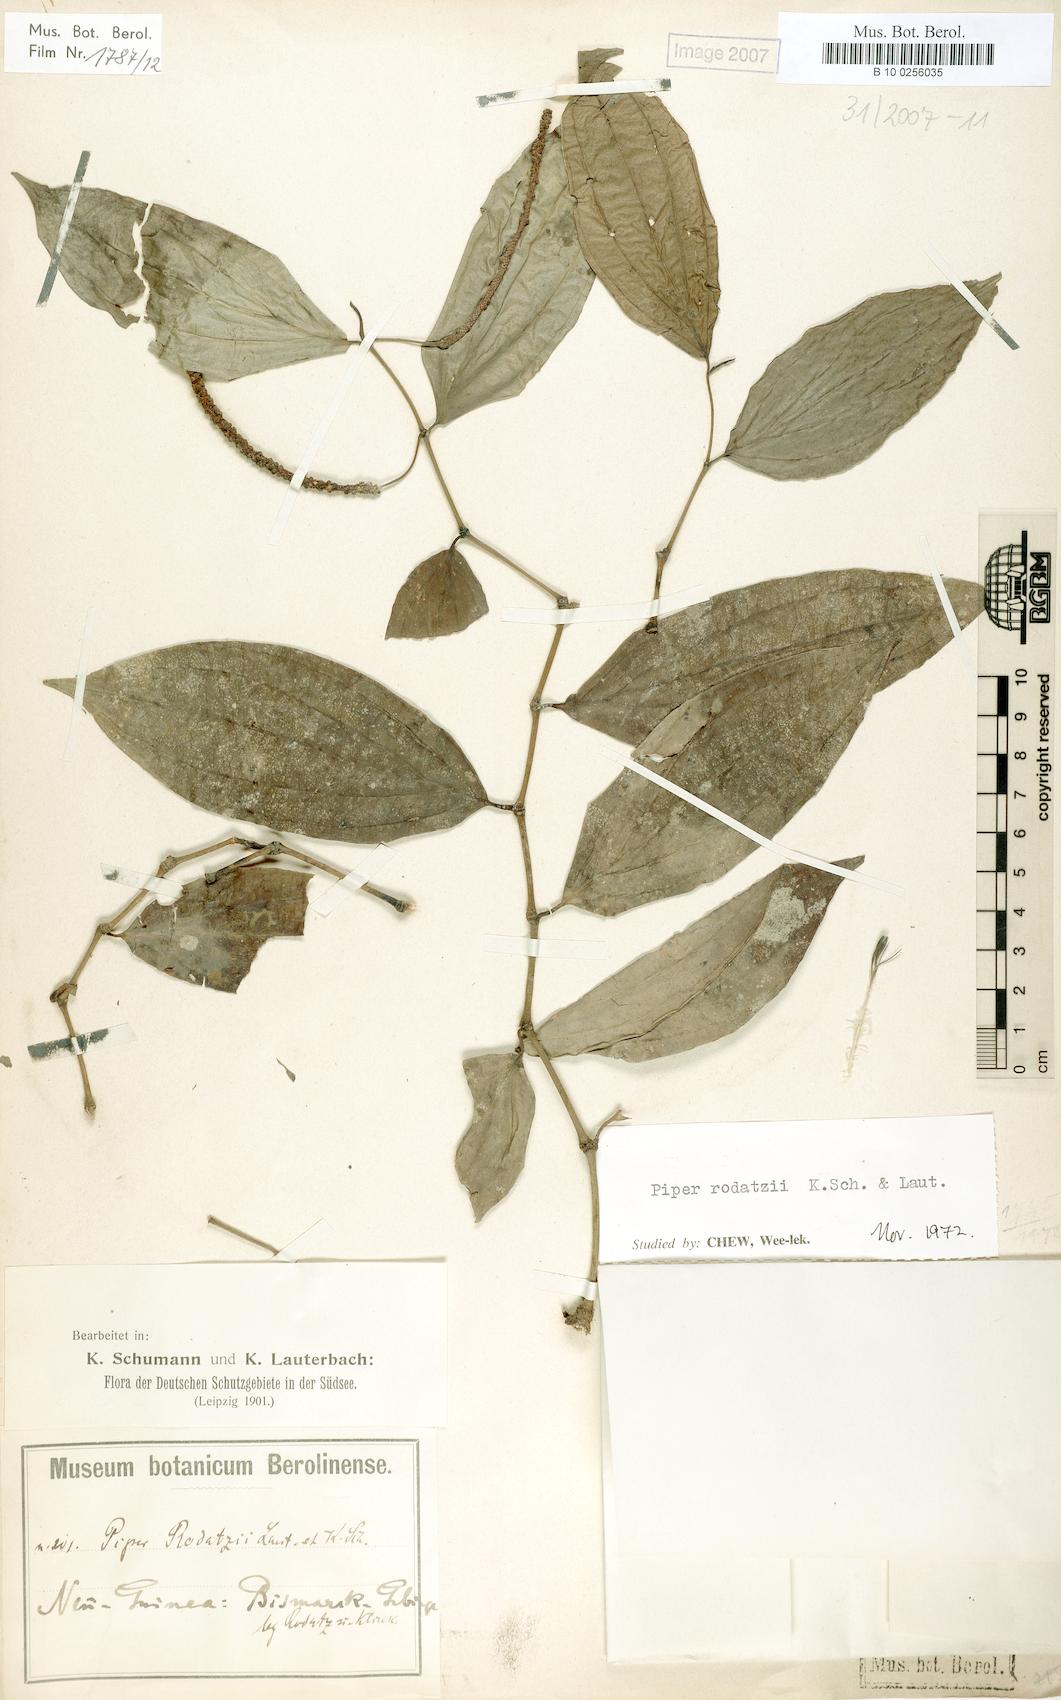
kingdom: Plantae
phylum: Tracheophyta
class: Magnoliopsida
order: Piperales
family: Piperaceae
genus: Piper
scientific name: Piper macropiper
